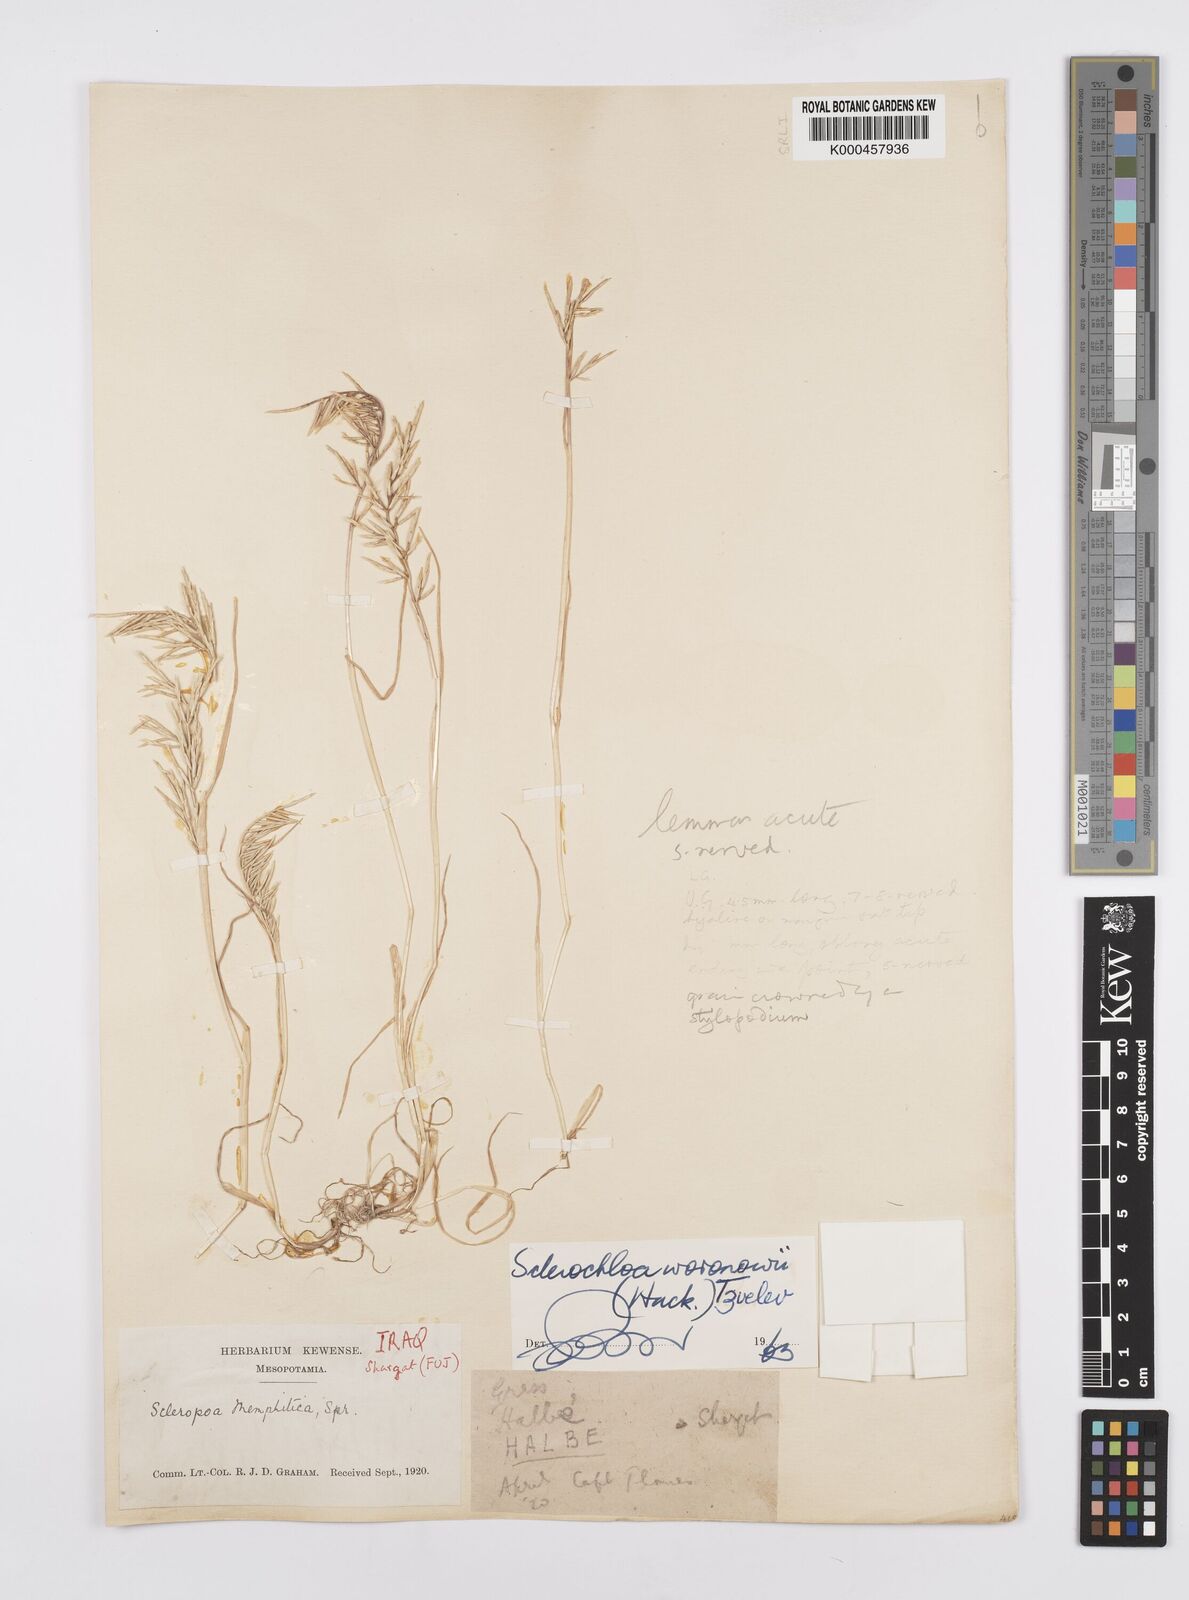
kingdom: Plantae
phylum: Tracheophyta
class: Liliopsida
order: Poales
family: Poaceae
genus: Sclerochloa
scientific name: Sclerochloa woronowii
